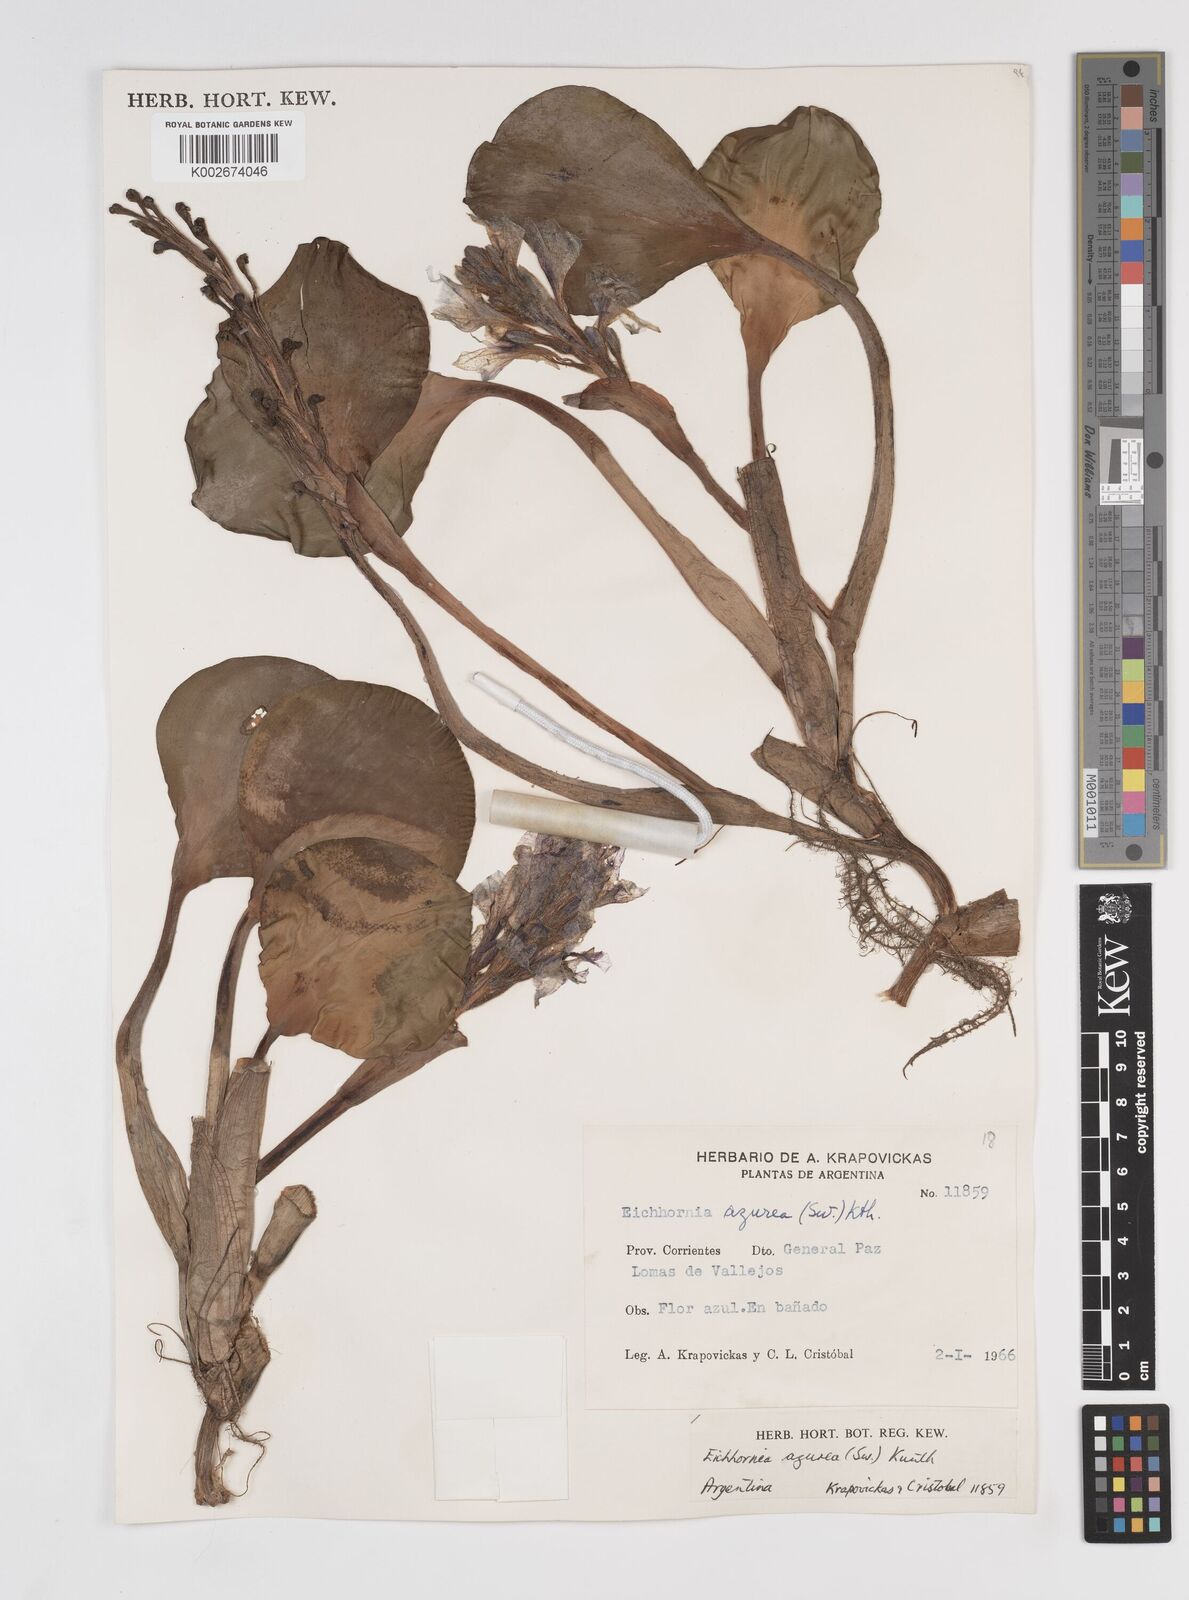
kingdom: Plantae
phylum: Tracheophyta
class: Liliopsida
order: Commelinales
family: Pontederiaceae
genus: Pontederia
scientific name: Pontederia azurea
